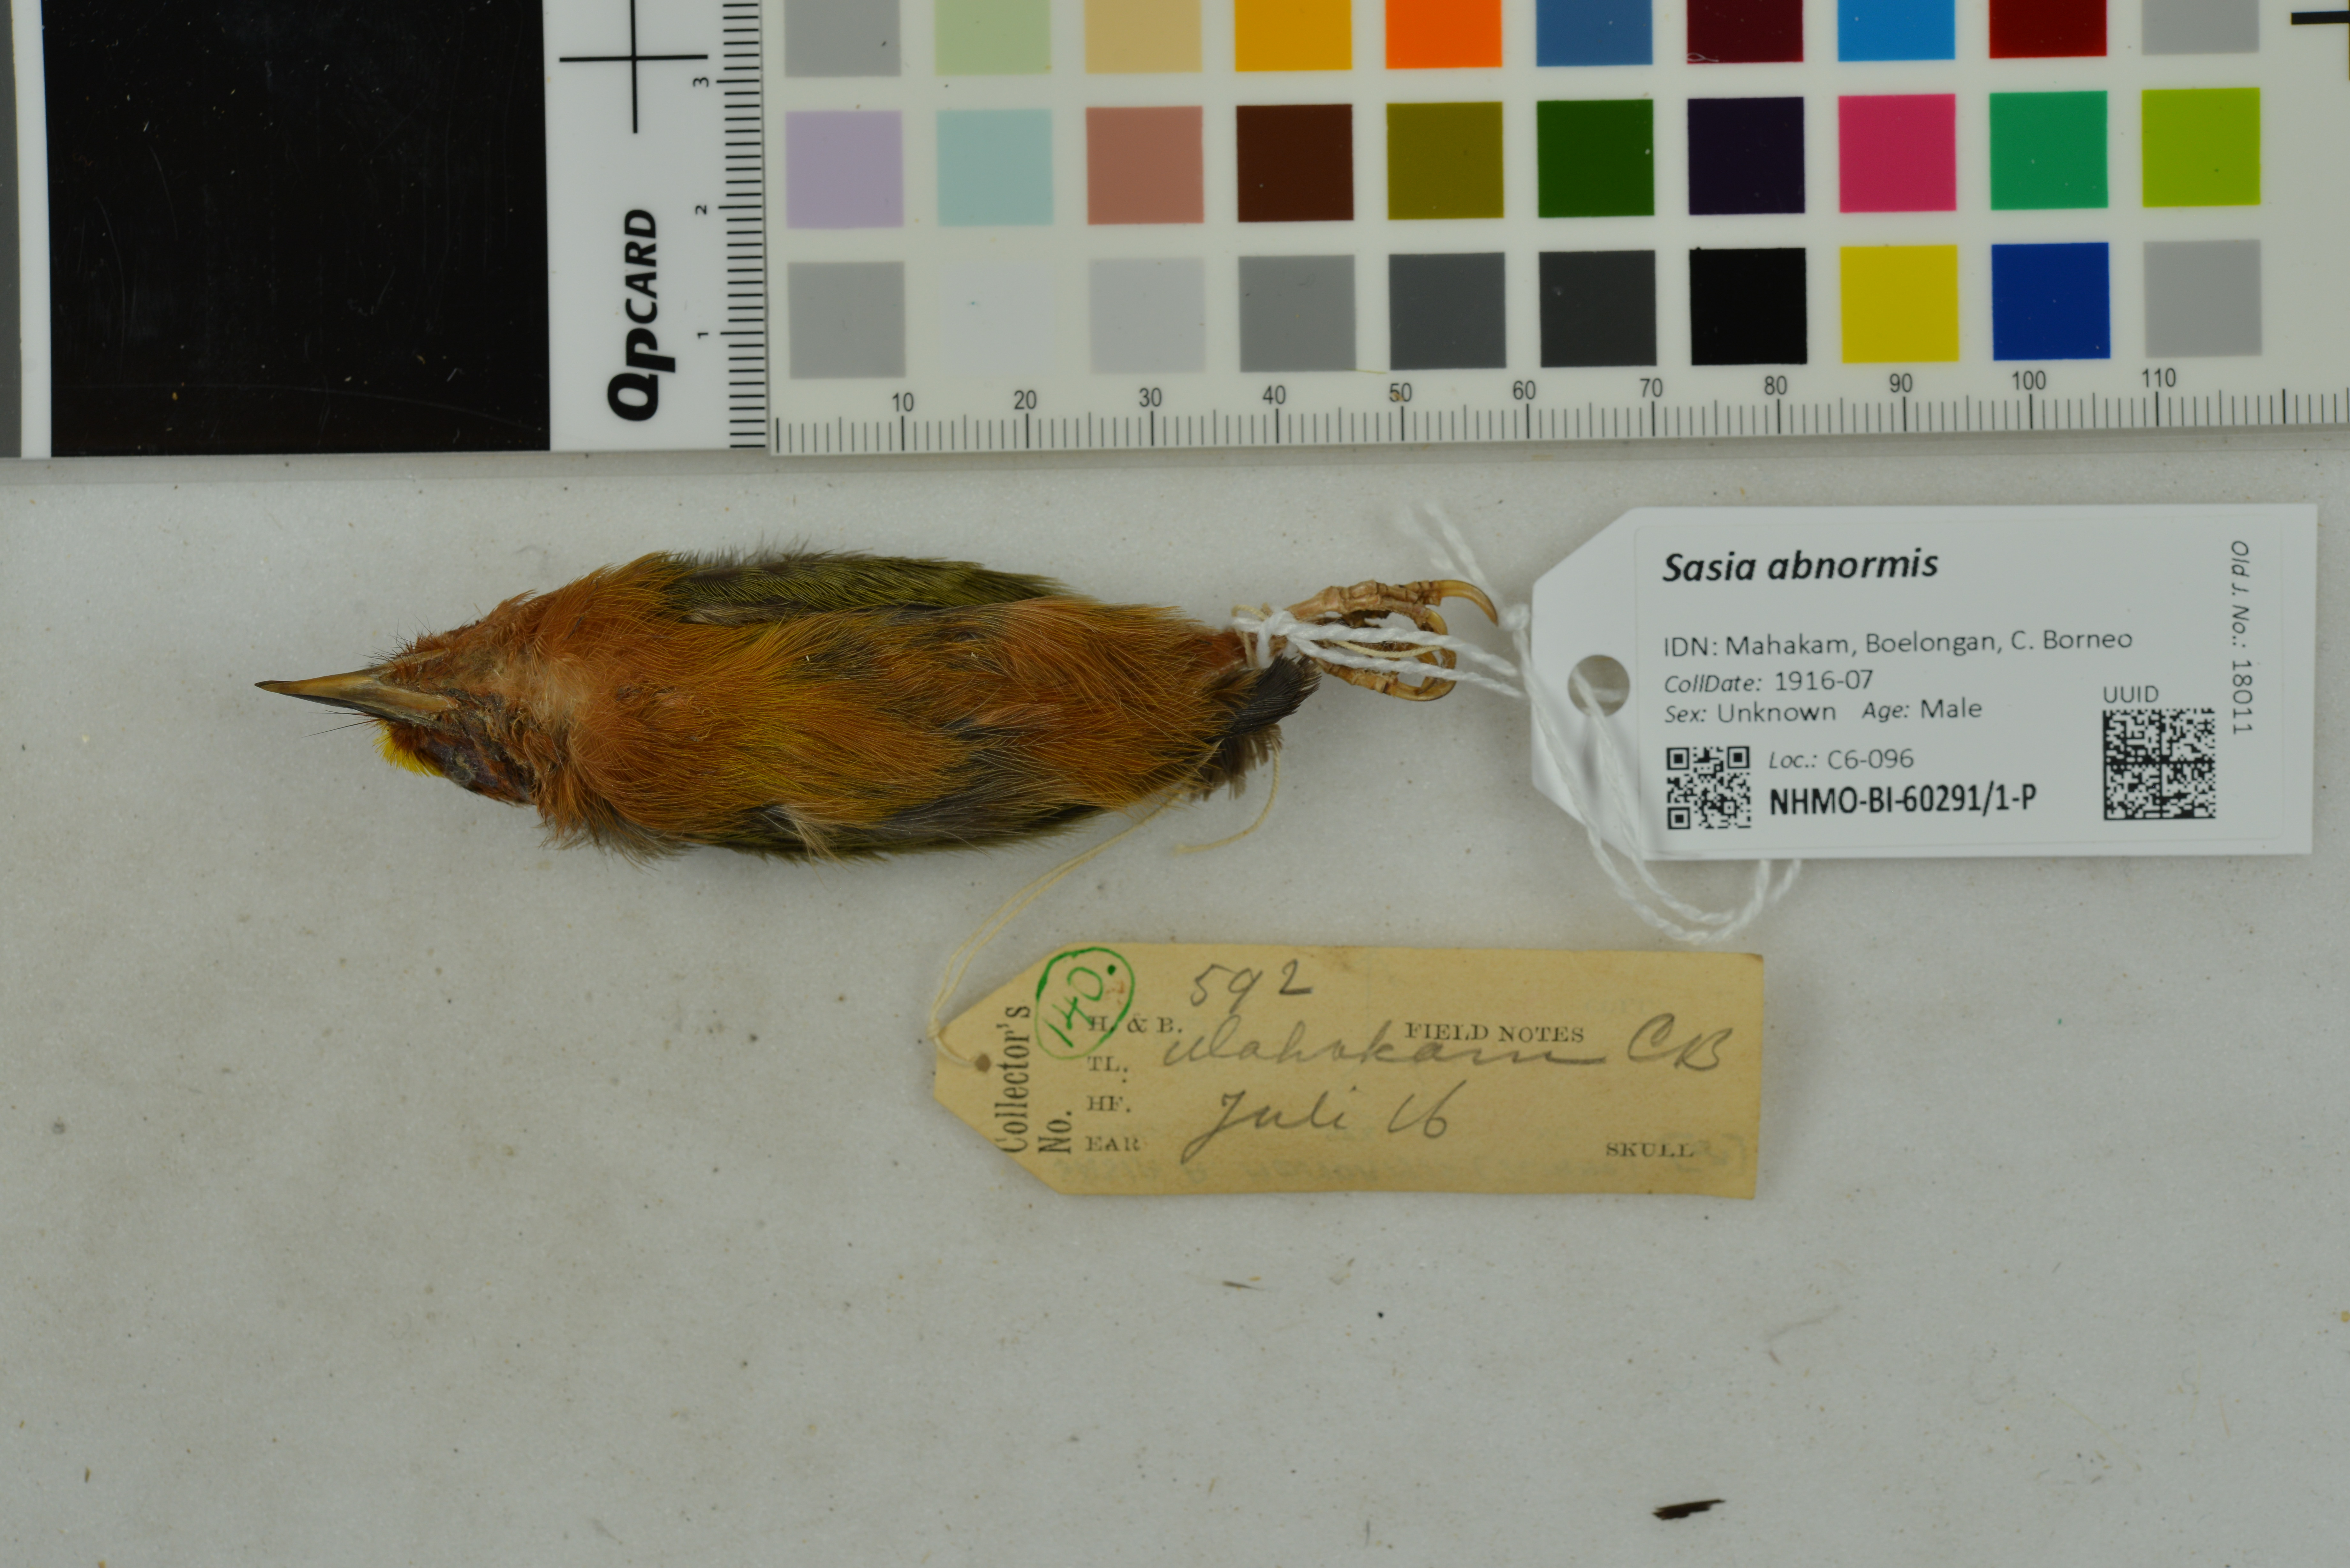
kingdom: Animalia
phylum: Chordata
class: Aves
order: Piciformes
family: Picidae
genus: Sasia
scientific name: Sasia abnormis
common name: Rufous piculet
